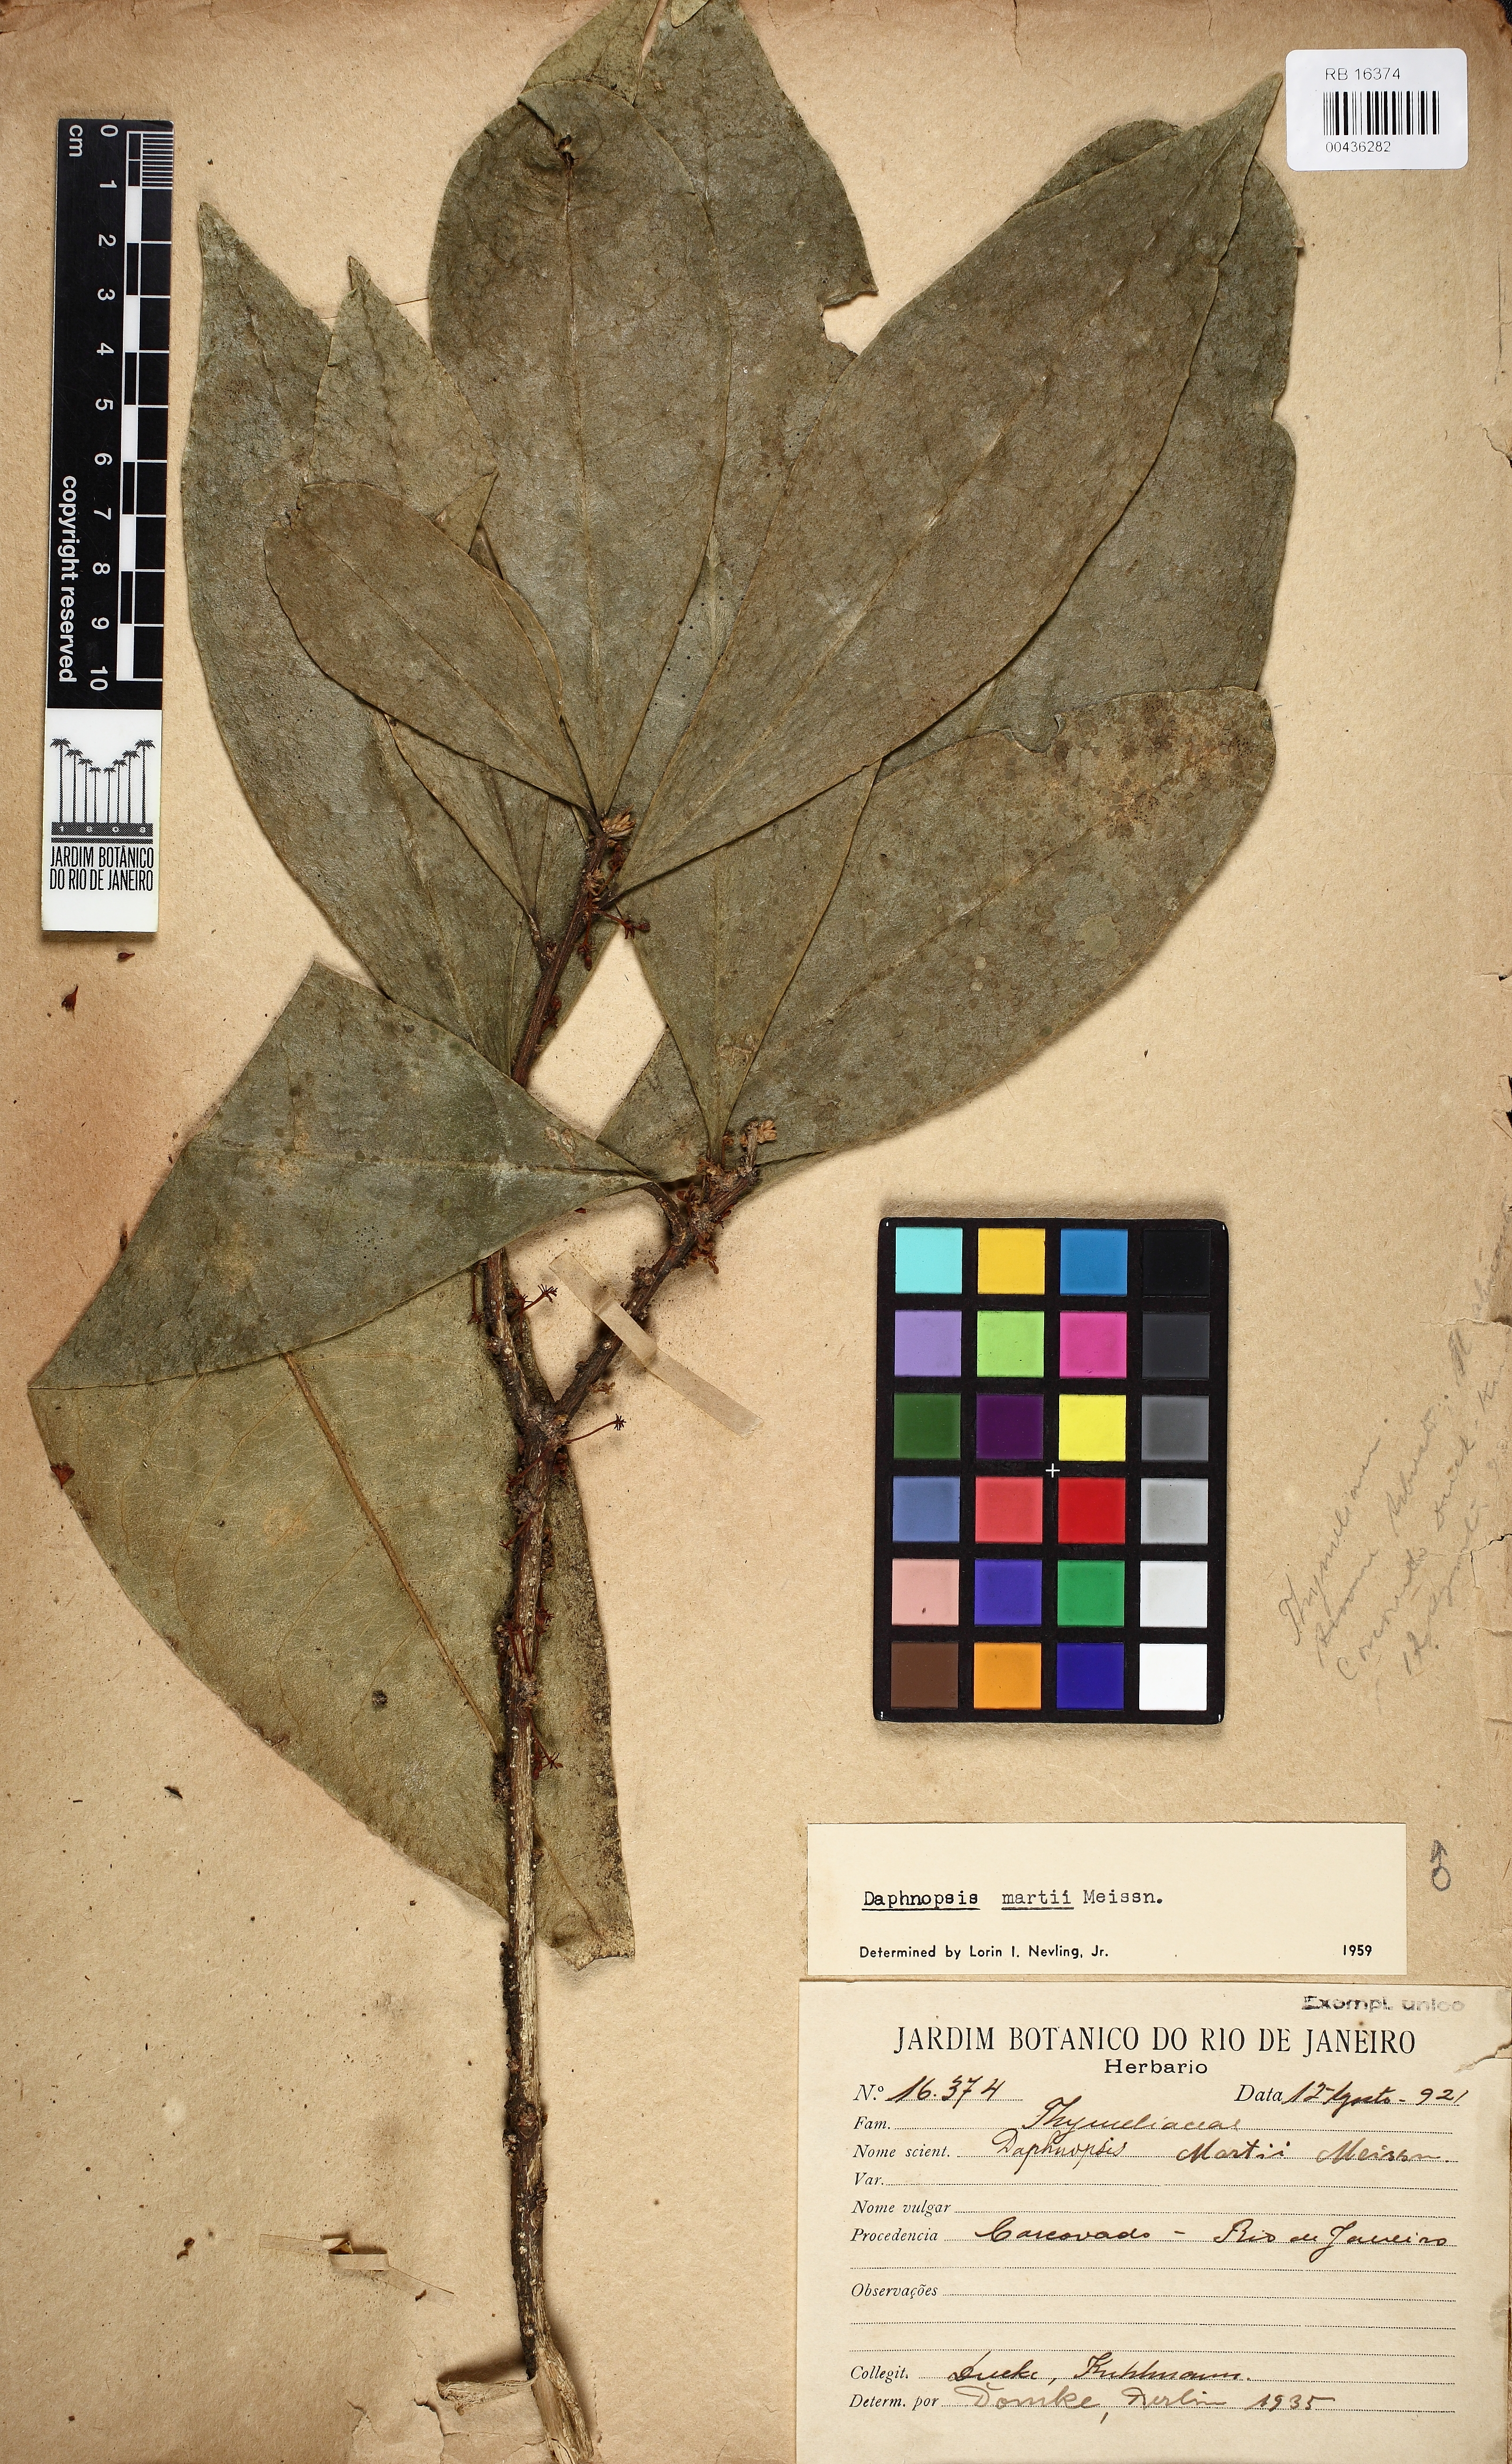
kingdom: Plantae
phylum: Tracheophyta
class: Magnoliopsida
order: Malvales
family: Thymelaeaceae
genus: Daphnopsis
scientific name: Daphnopsis martii
